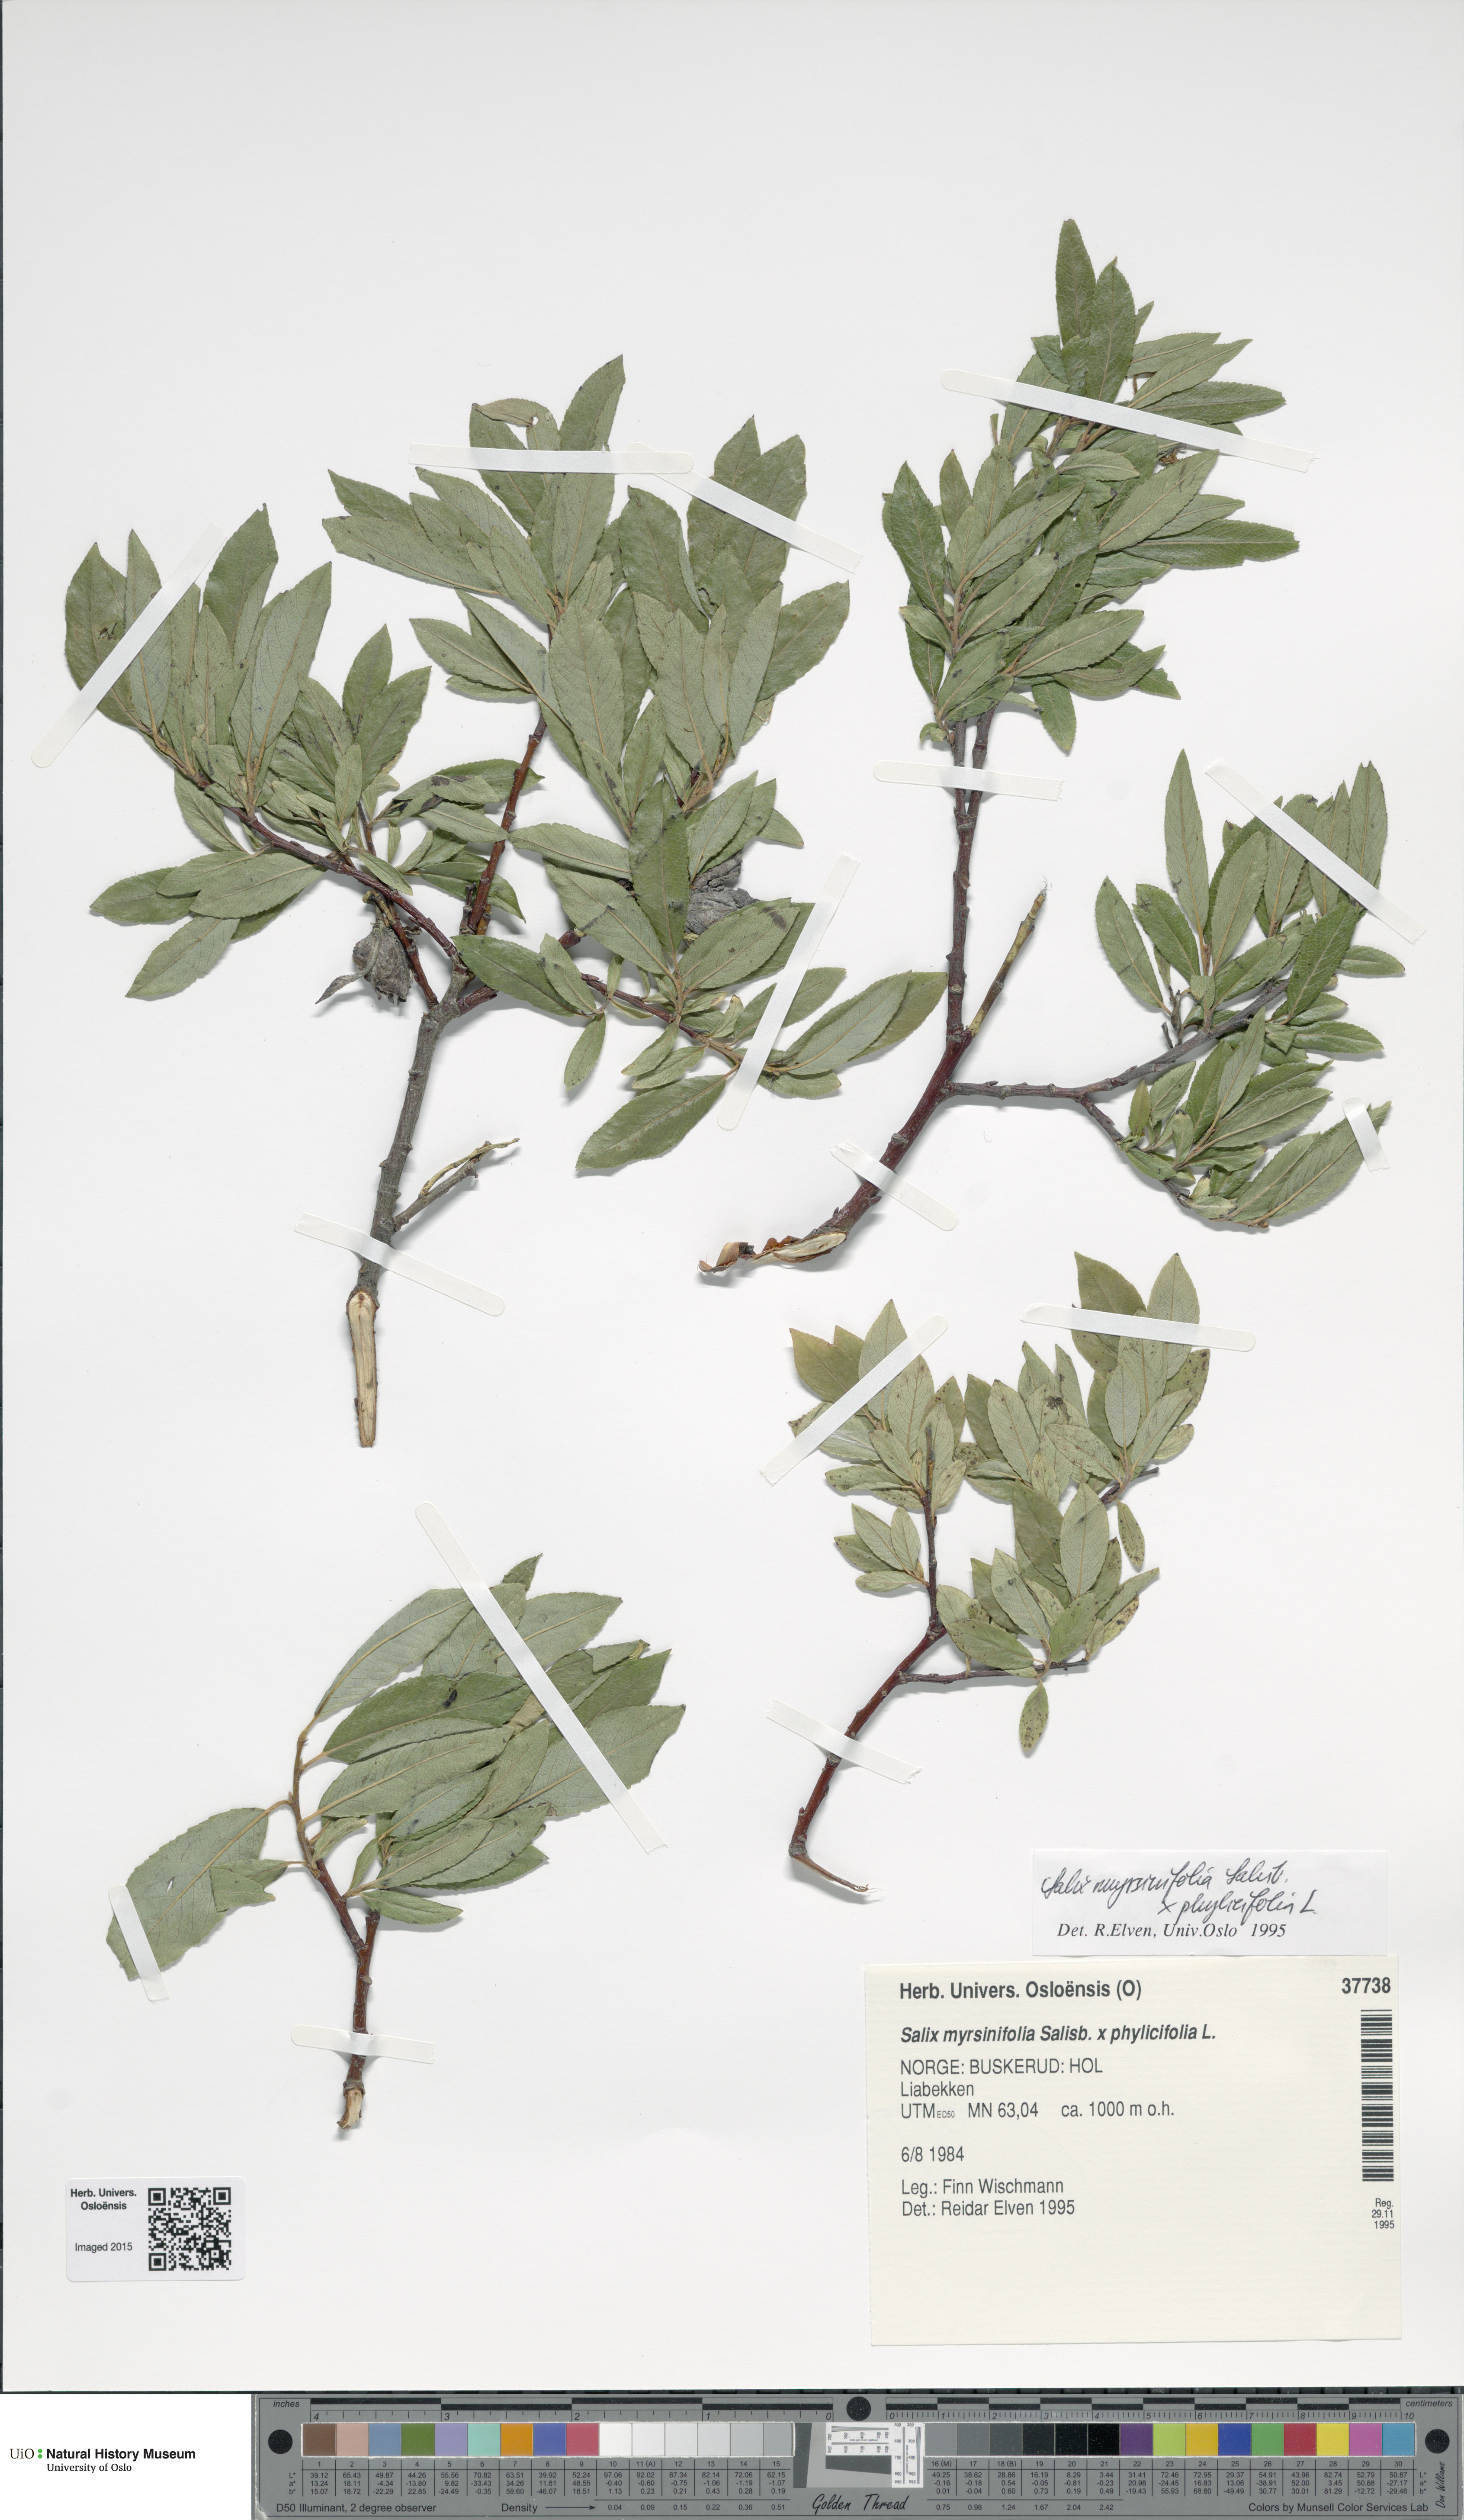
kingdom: Plantae
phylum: Tracheophyta
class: Magnoliopsida
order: Malpighiales
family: Salicaceae
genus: Salix
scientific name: Salix
